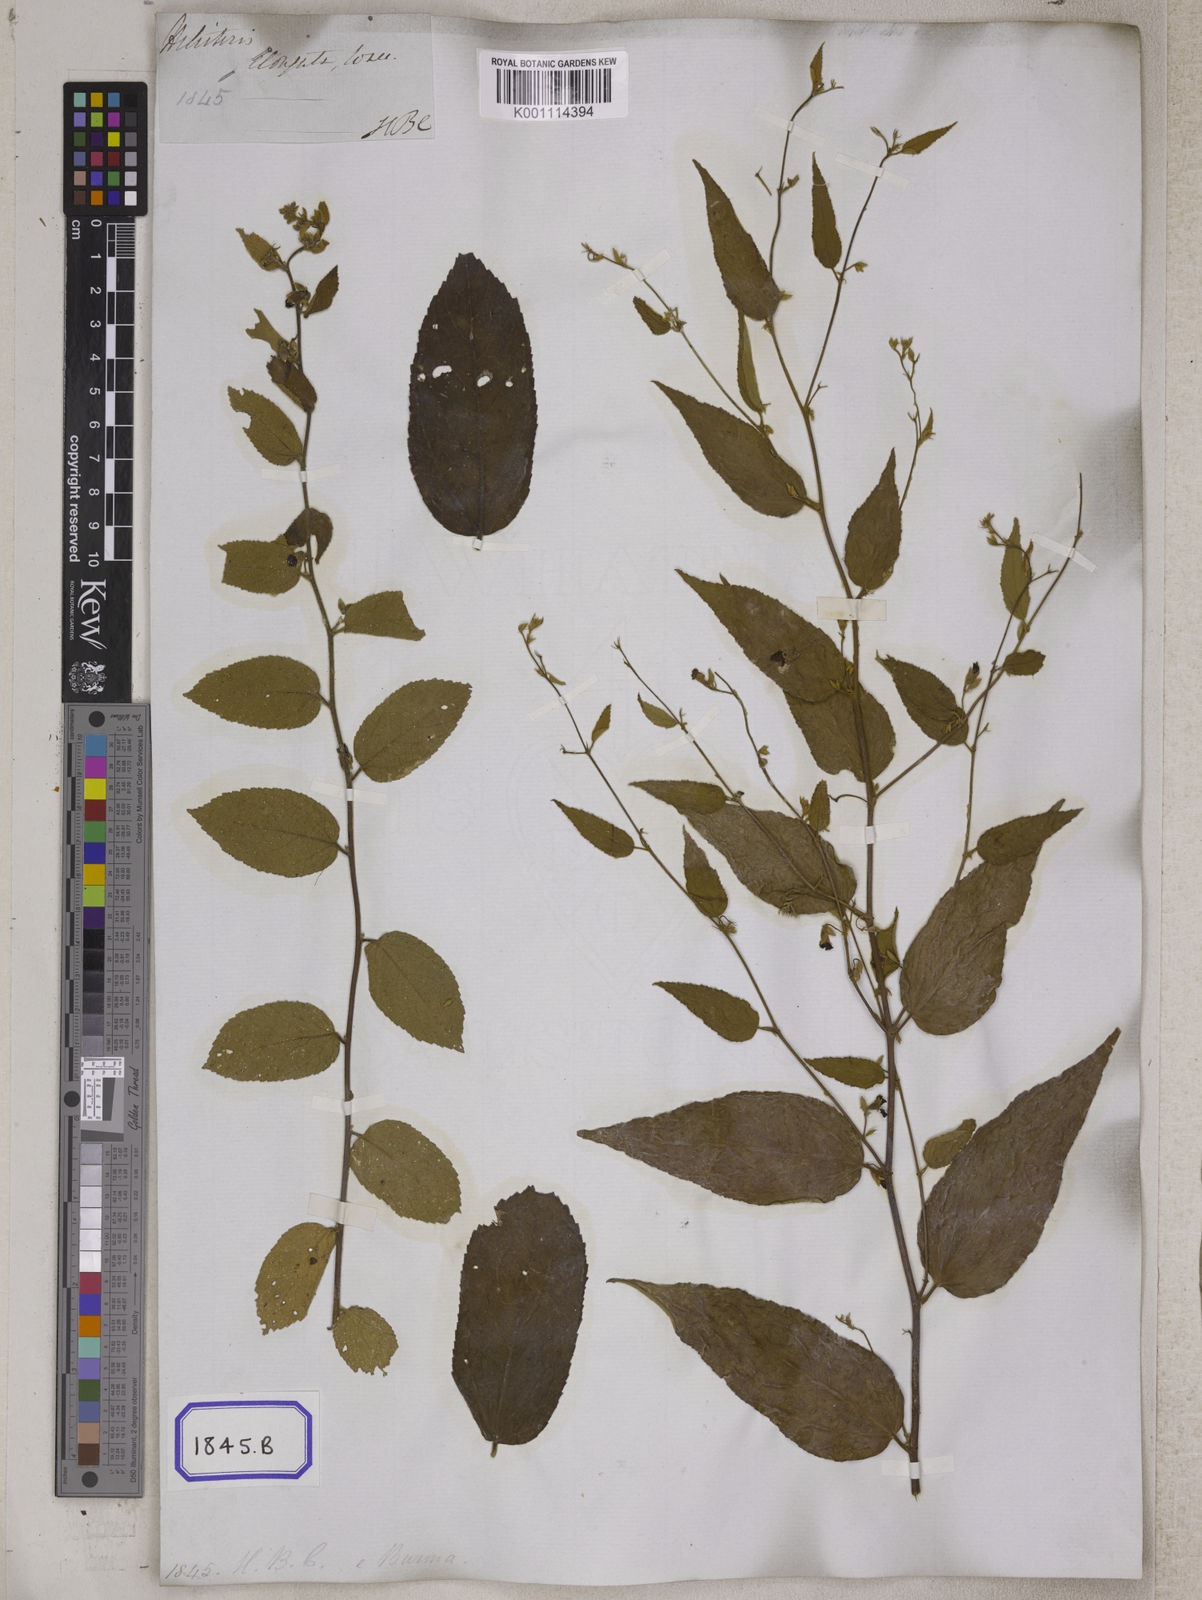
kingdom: Plantae
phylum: Tracheophyta
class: Magnoliopsida
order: Malvales
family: Malvaceae
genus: Helicteres
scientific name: Helicteres
